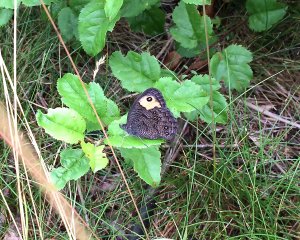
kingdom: Animalia
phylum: Arthropoda
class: Insecta
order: Lepidoptera
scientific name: Lepidoptera
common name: Butterflies
